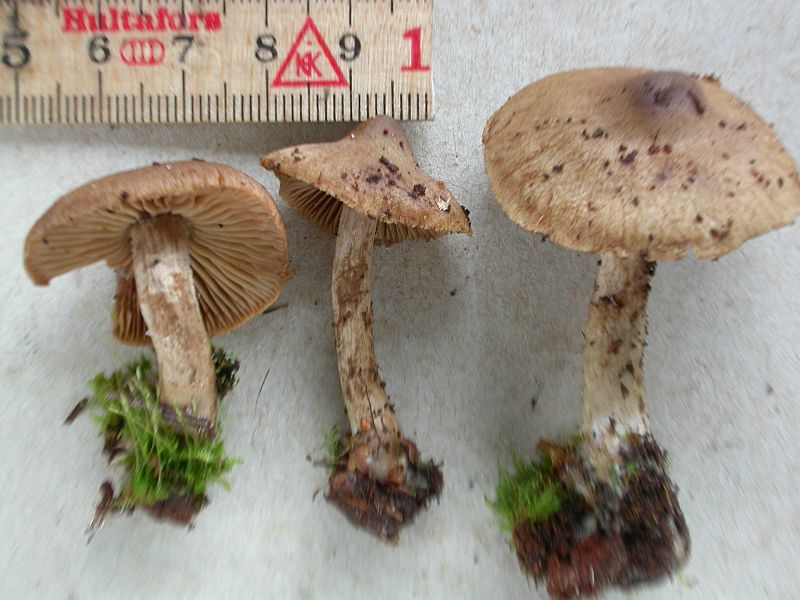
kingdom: Fungi
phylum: Basidiomycota
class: Agaricomycetes
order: Agaricales
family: Cortinariaceae
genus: Cortinarius
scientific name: Cortinarius raphanoides
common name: ræddike-slørhat
